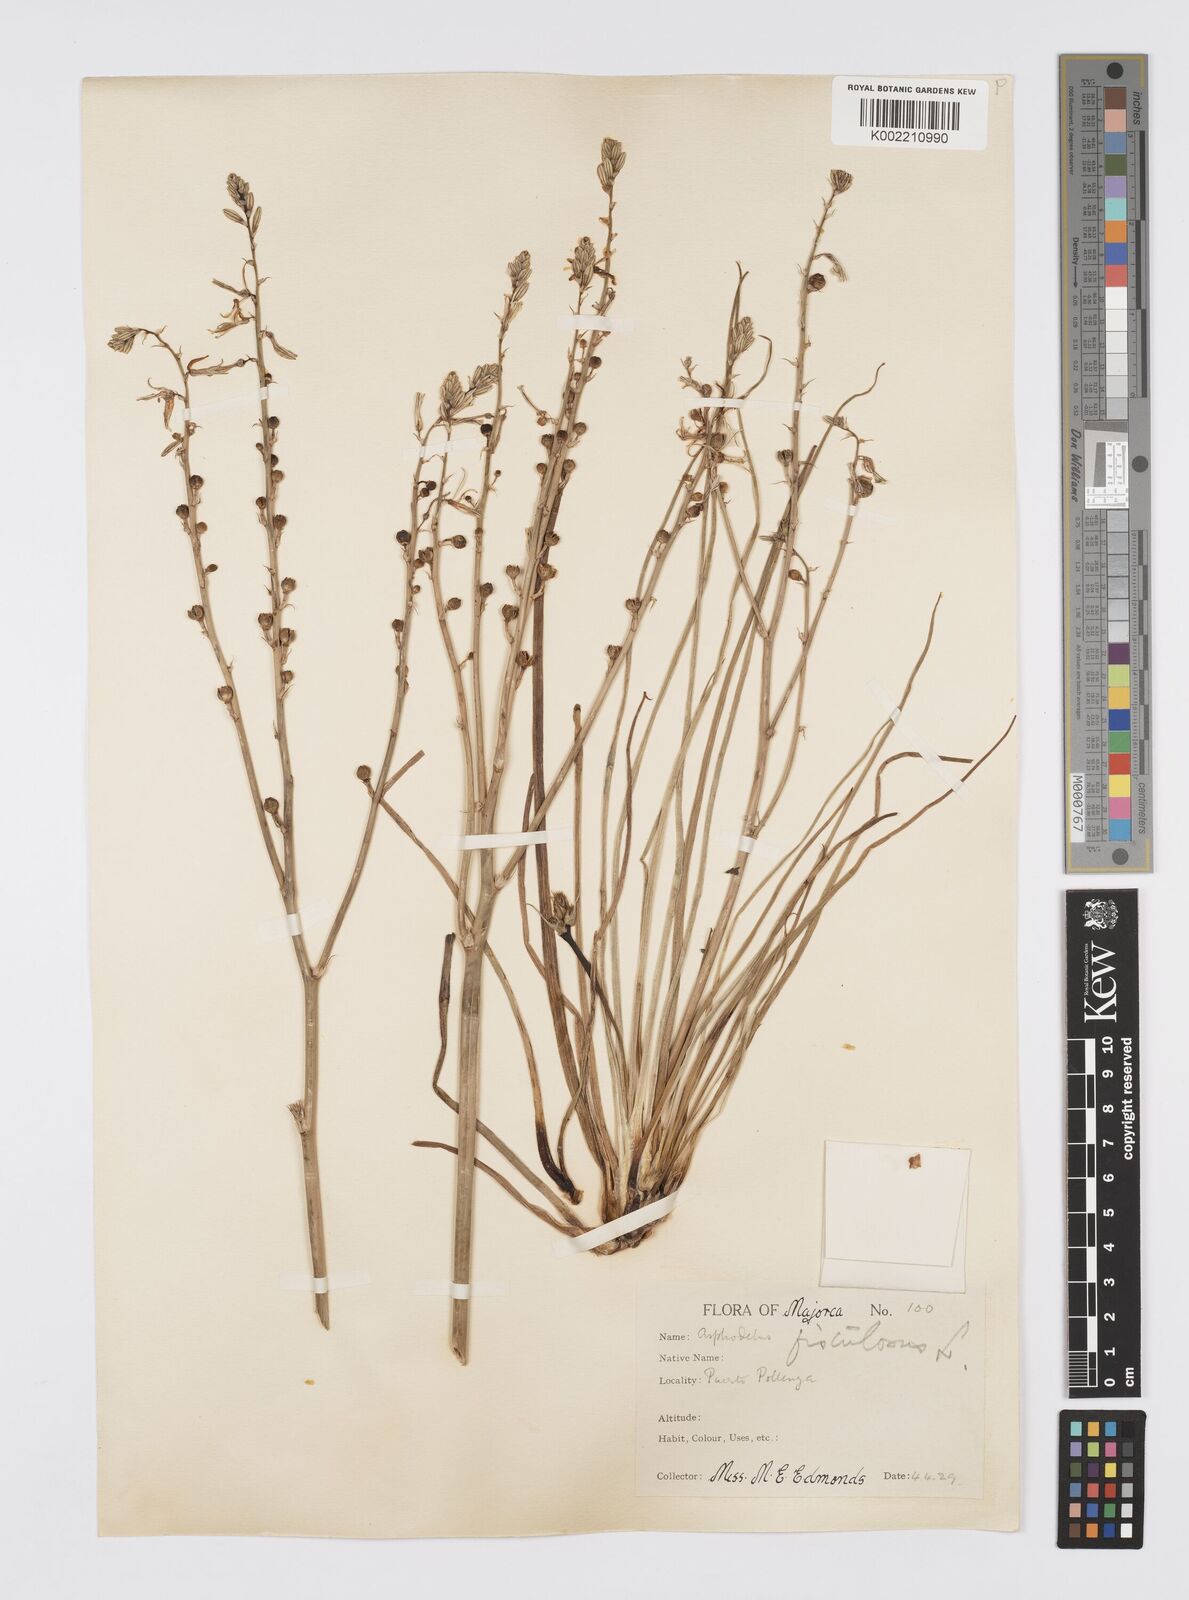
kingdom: Plantae
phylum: Tracheophyta
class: Liliopsida
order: Asparagales
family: Asphodelaceae
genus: Asphodelus
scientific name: Asphodelus fistulosus
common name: Onionweed
